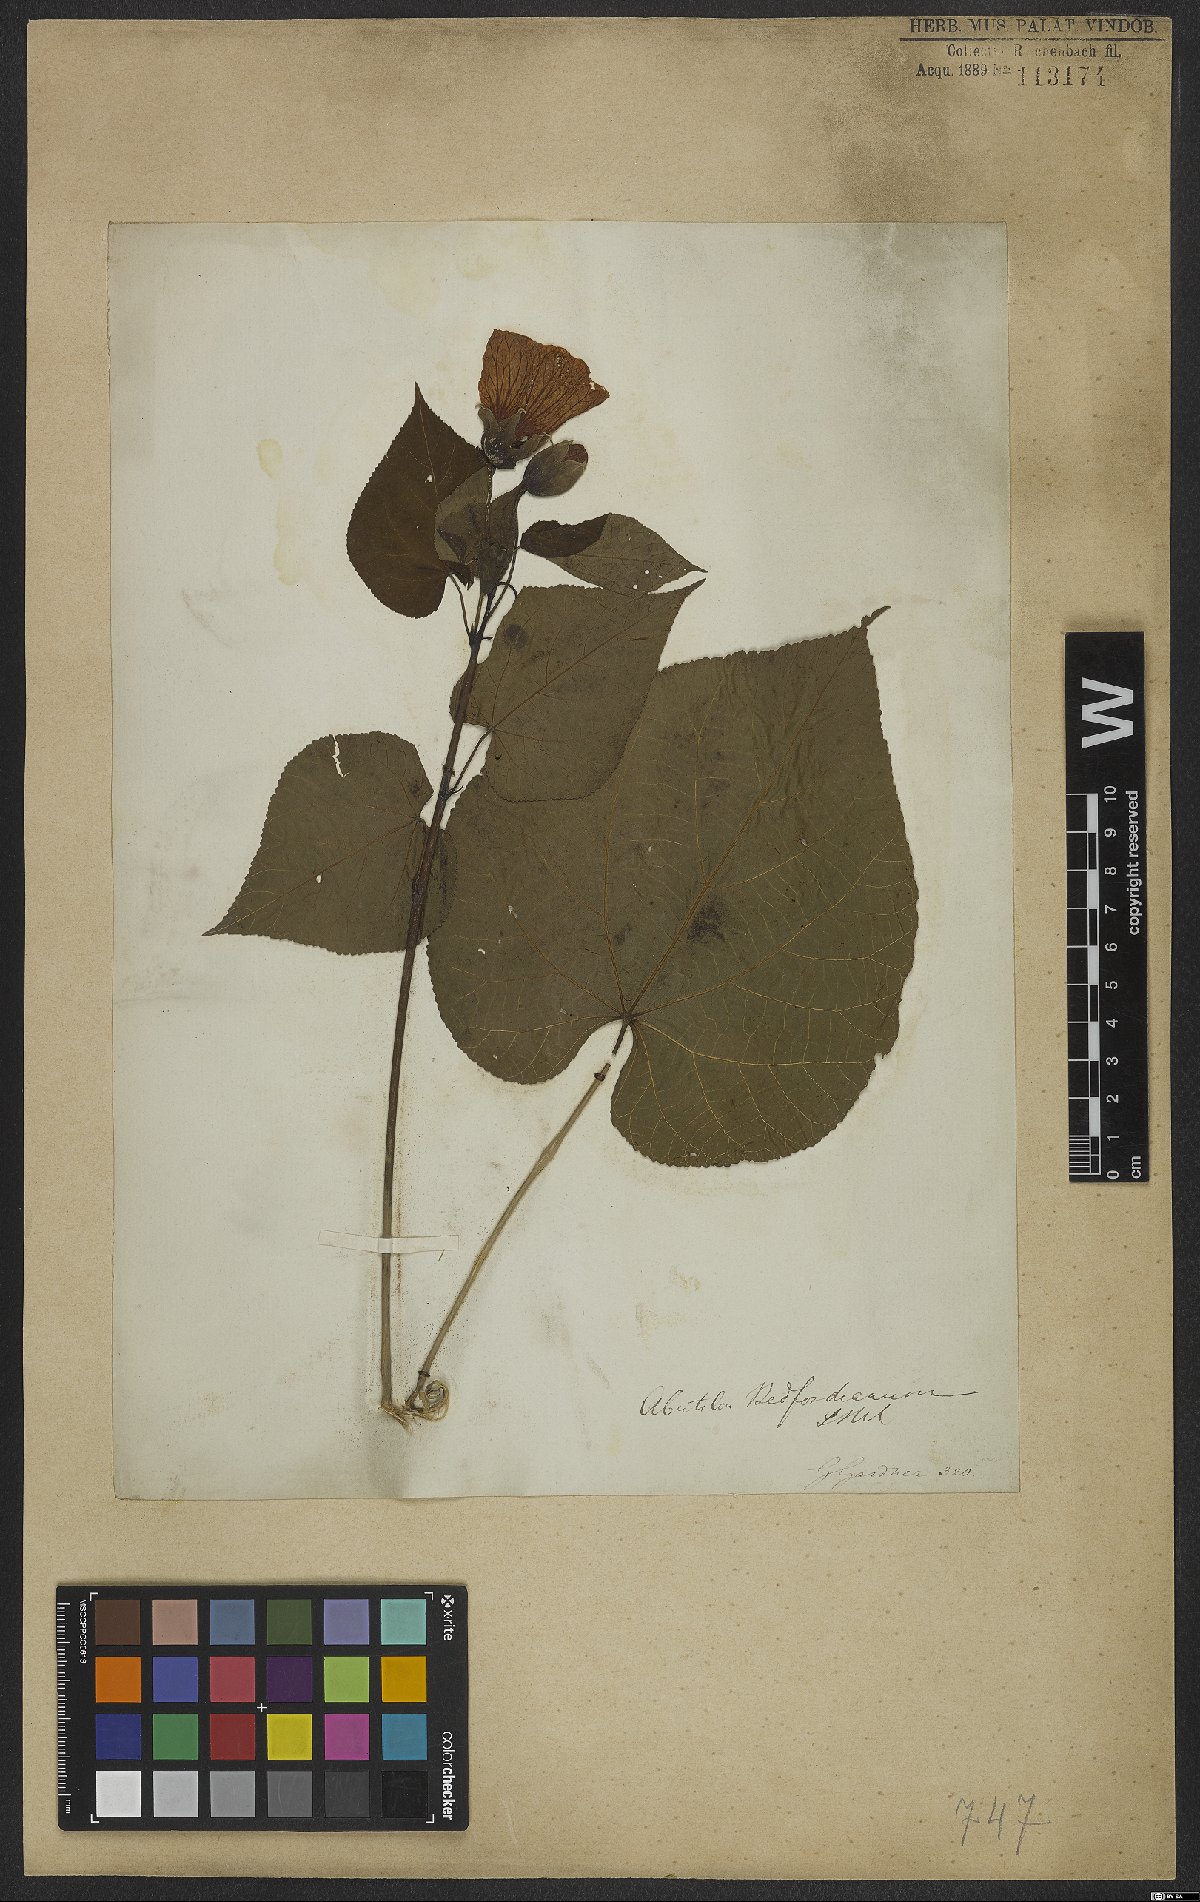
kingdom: Plantae
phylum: Tracheophyta
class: Magnoliopsida
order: Malvales
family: Malvaceae
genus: Callianthe
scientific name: Callianthe bedfordiana
